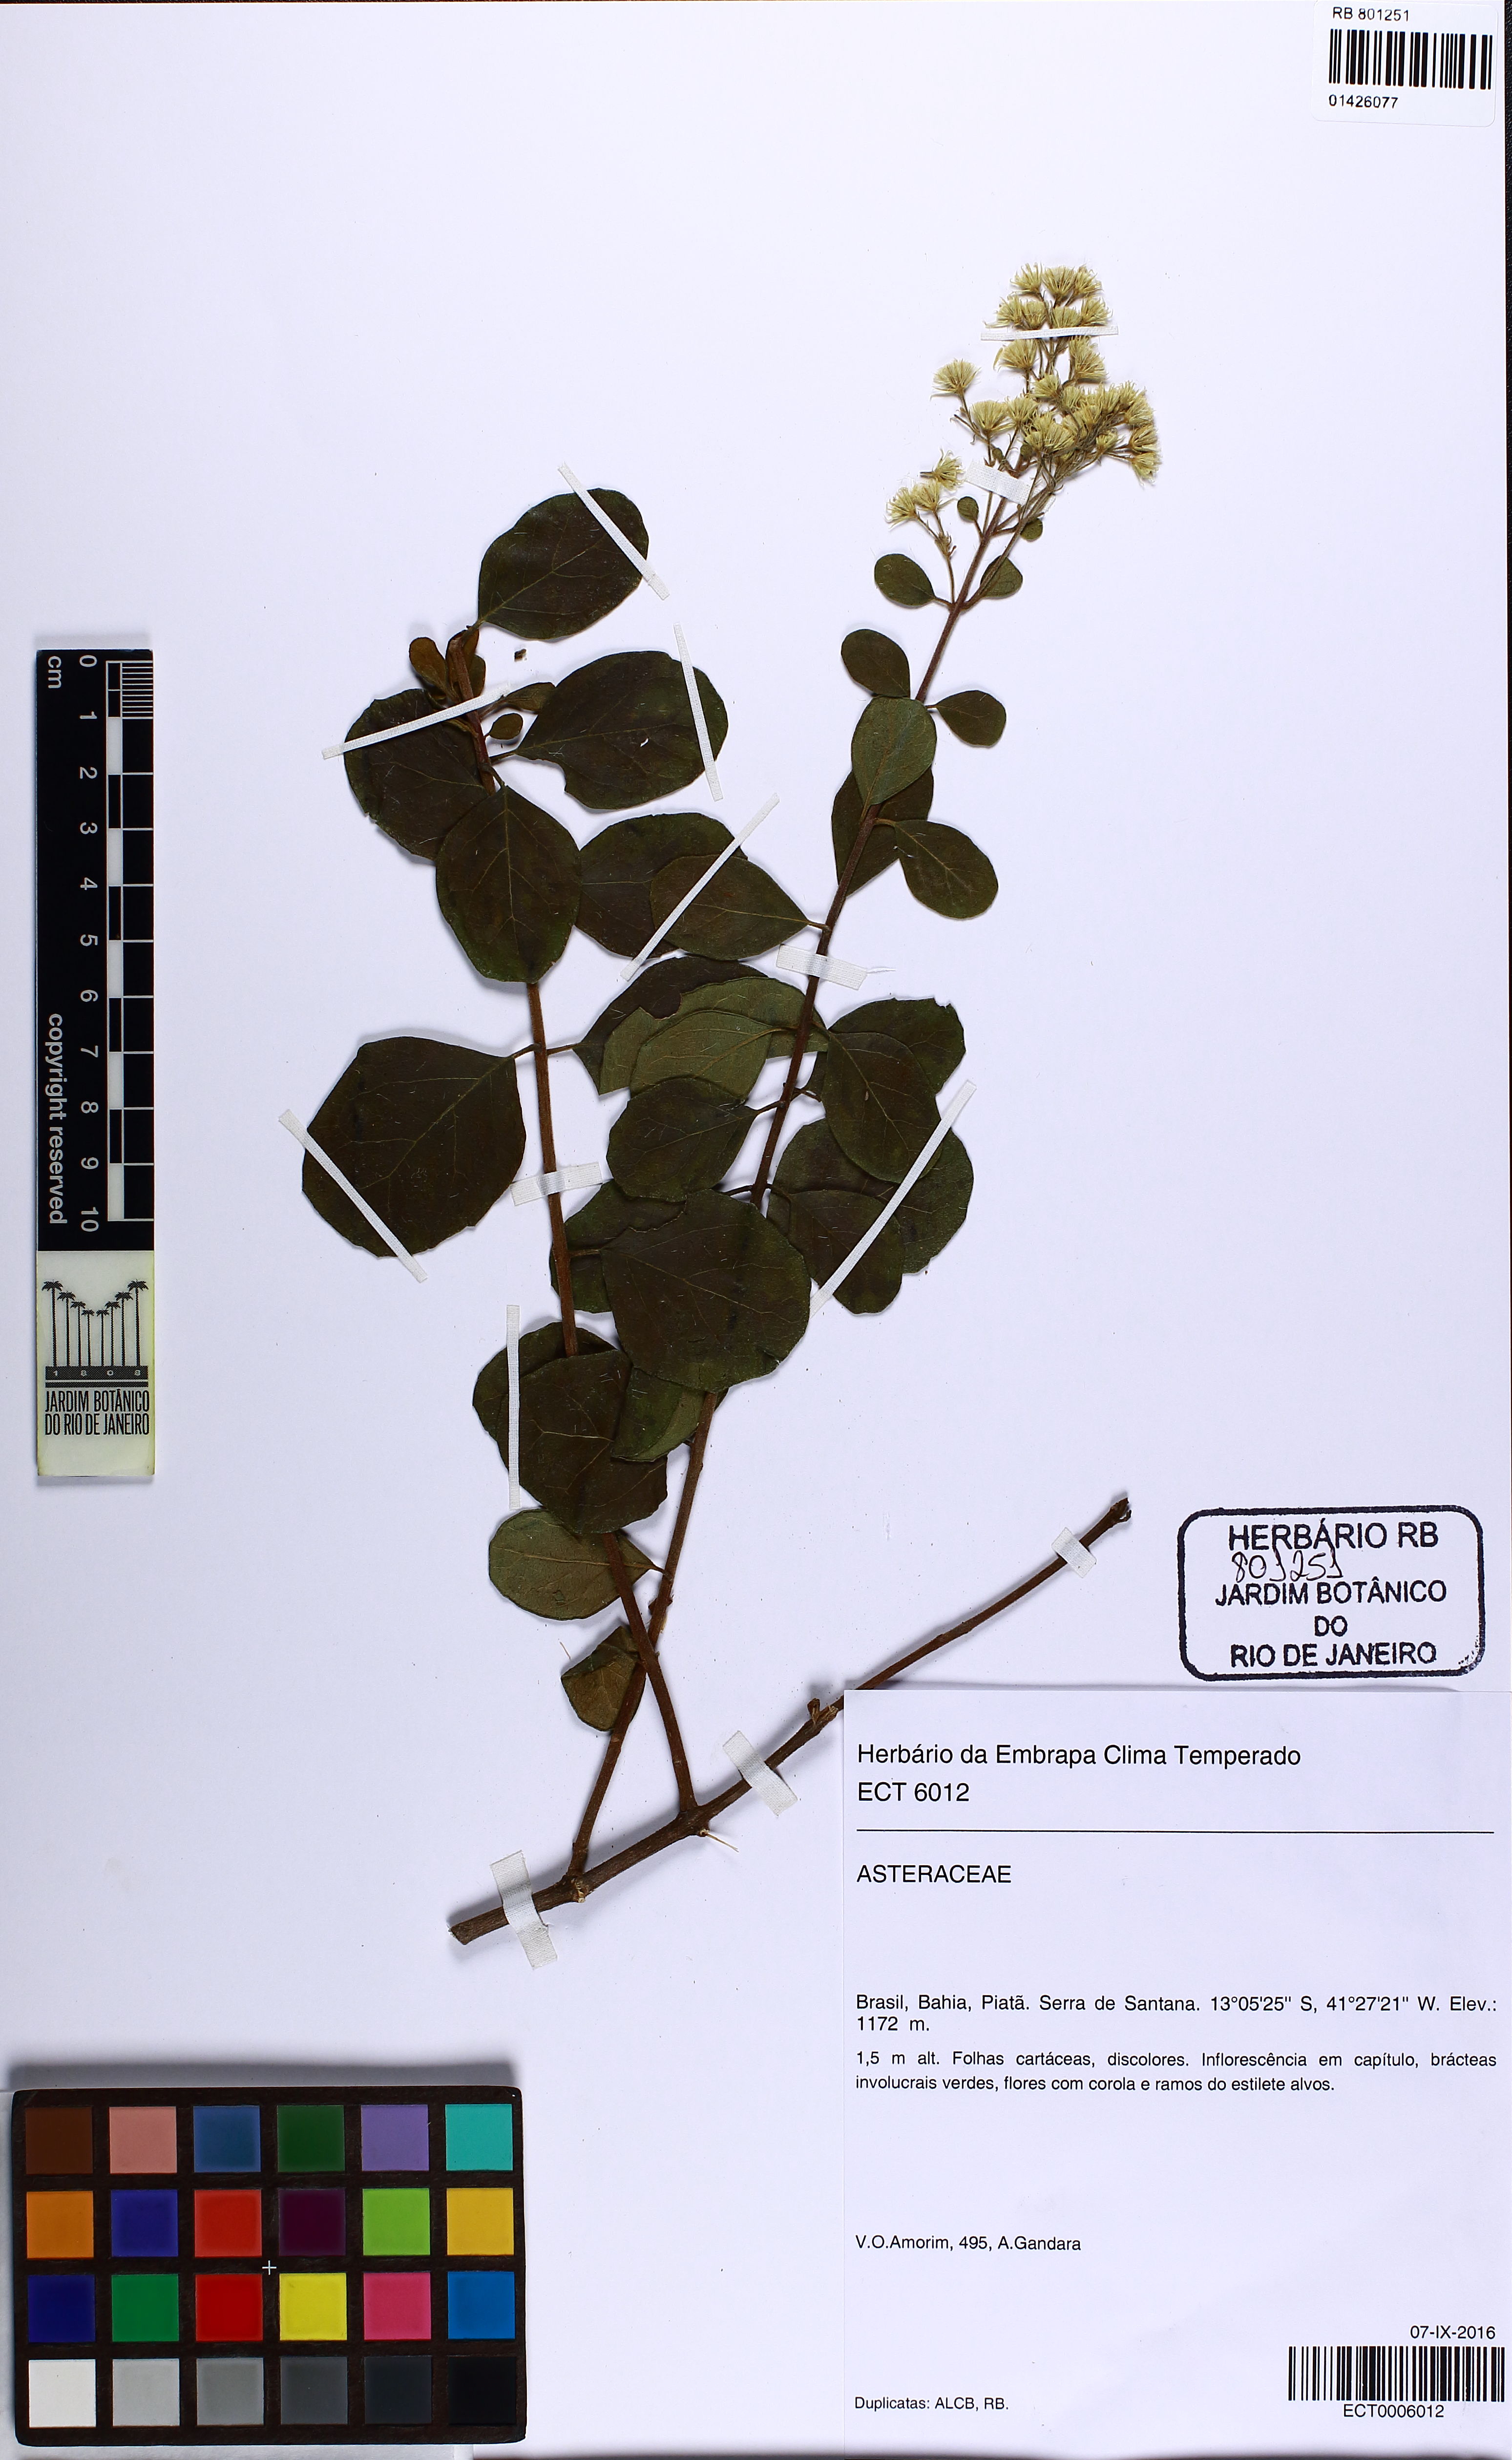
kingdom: Plantae
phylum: Tracheophyta
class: Magnoliopsida
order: Asterales
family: Asteraceae
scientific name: Asteraceae
